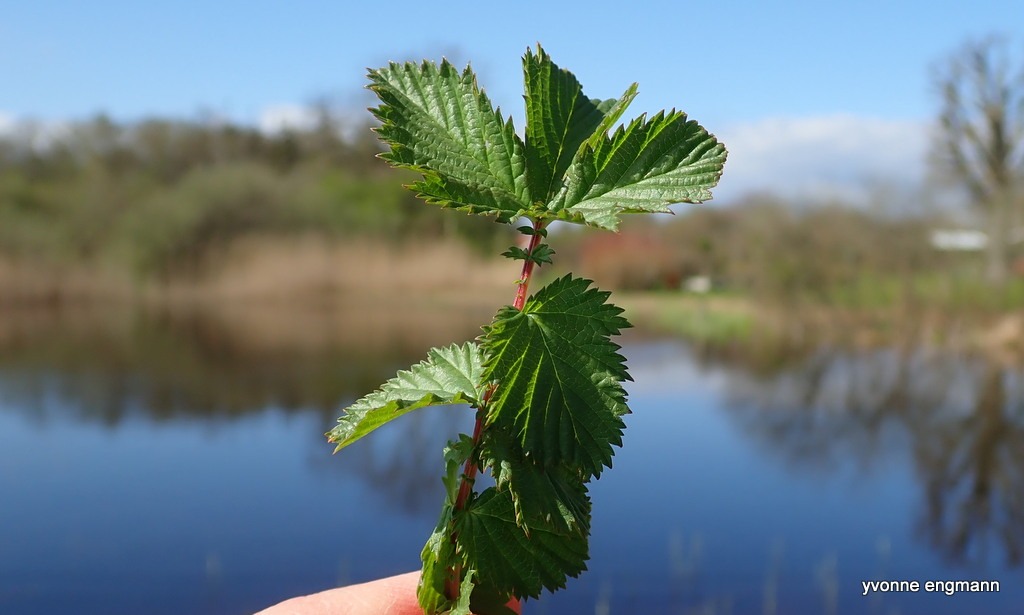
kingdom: Plantae
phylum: Tracheophyta
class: Magnoliopsida
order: Rosales
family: Rosaceae
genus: Filipendula
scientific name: Filipendula ulmaria
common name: Almindelig mjødurt
